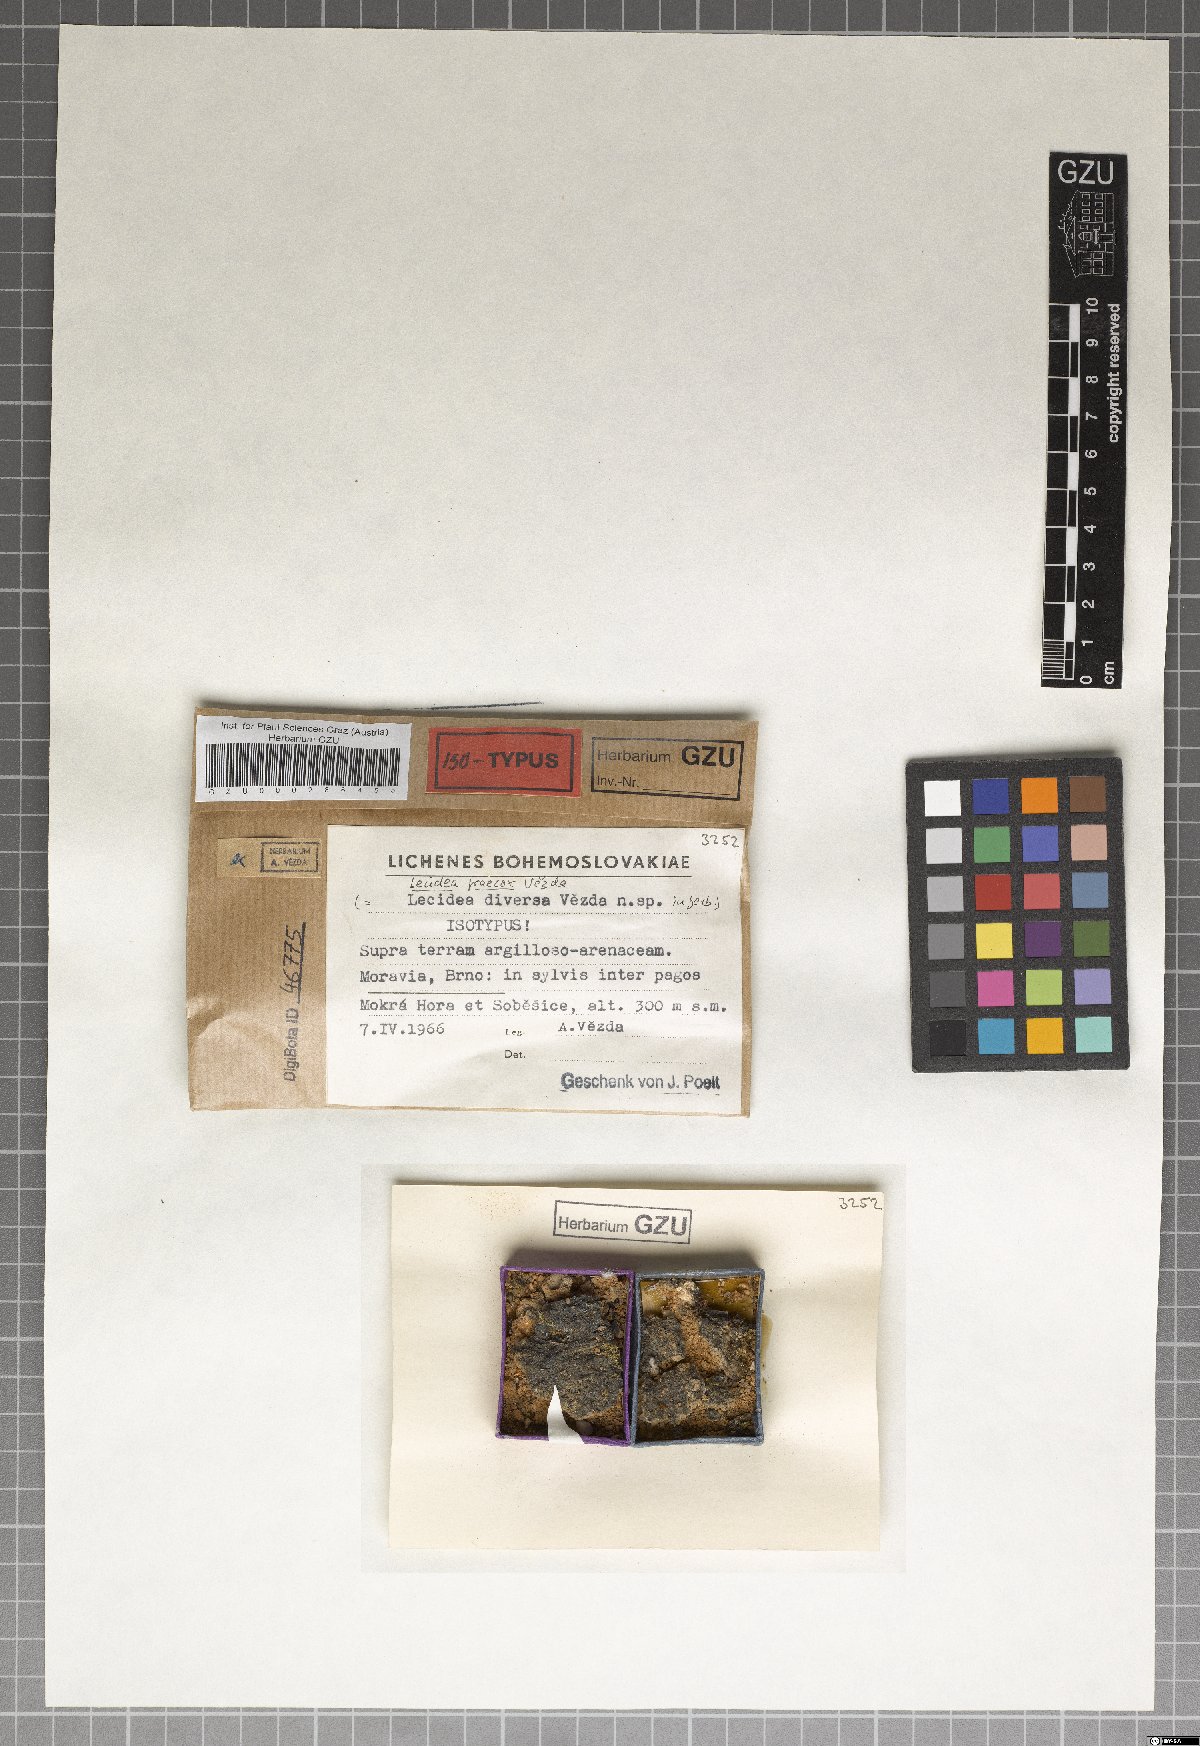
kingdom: Fungi
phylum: Ascomycota
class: Lecanoromycetes
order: Lecanorales
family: Aphanopsidaceae
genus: Aphanopsis
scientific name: Aphanopsis coenosa
